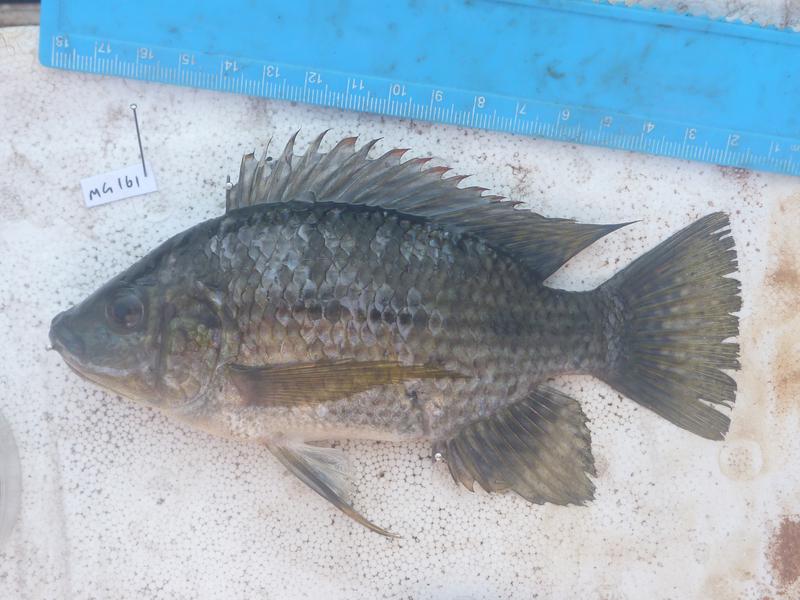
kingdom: Animalia
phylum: Chordata
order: Perciformes
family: Cichlidae
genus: Oreochromis
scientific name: Oreochromis karomo
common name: Karomo
